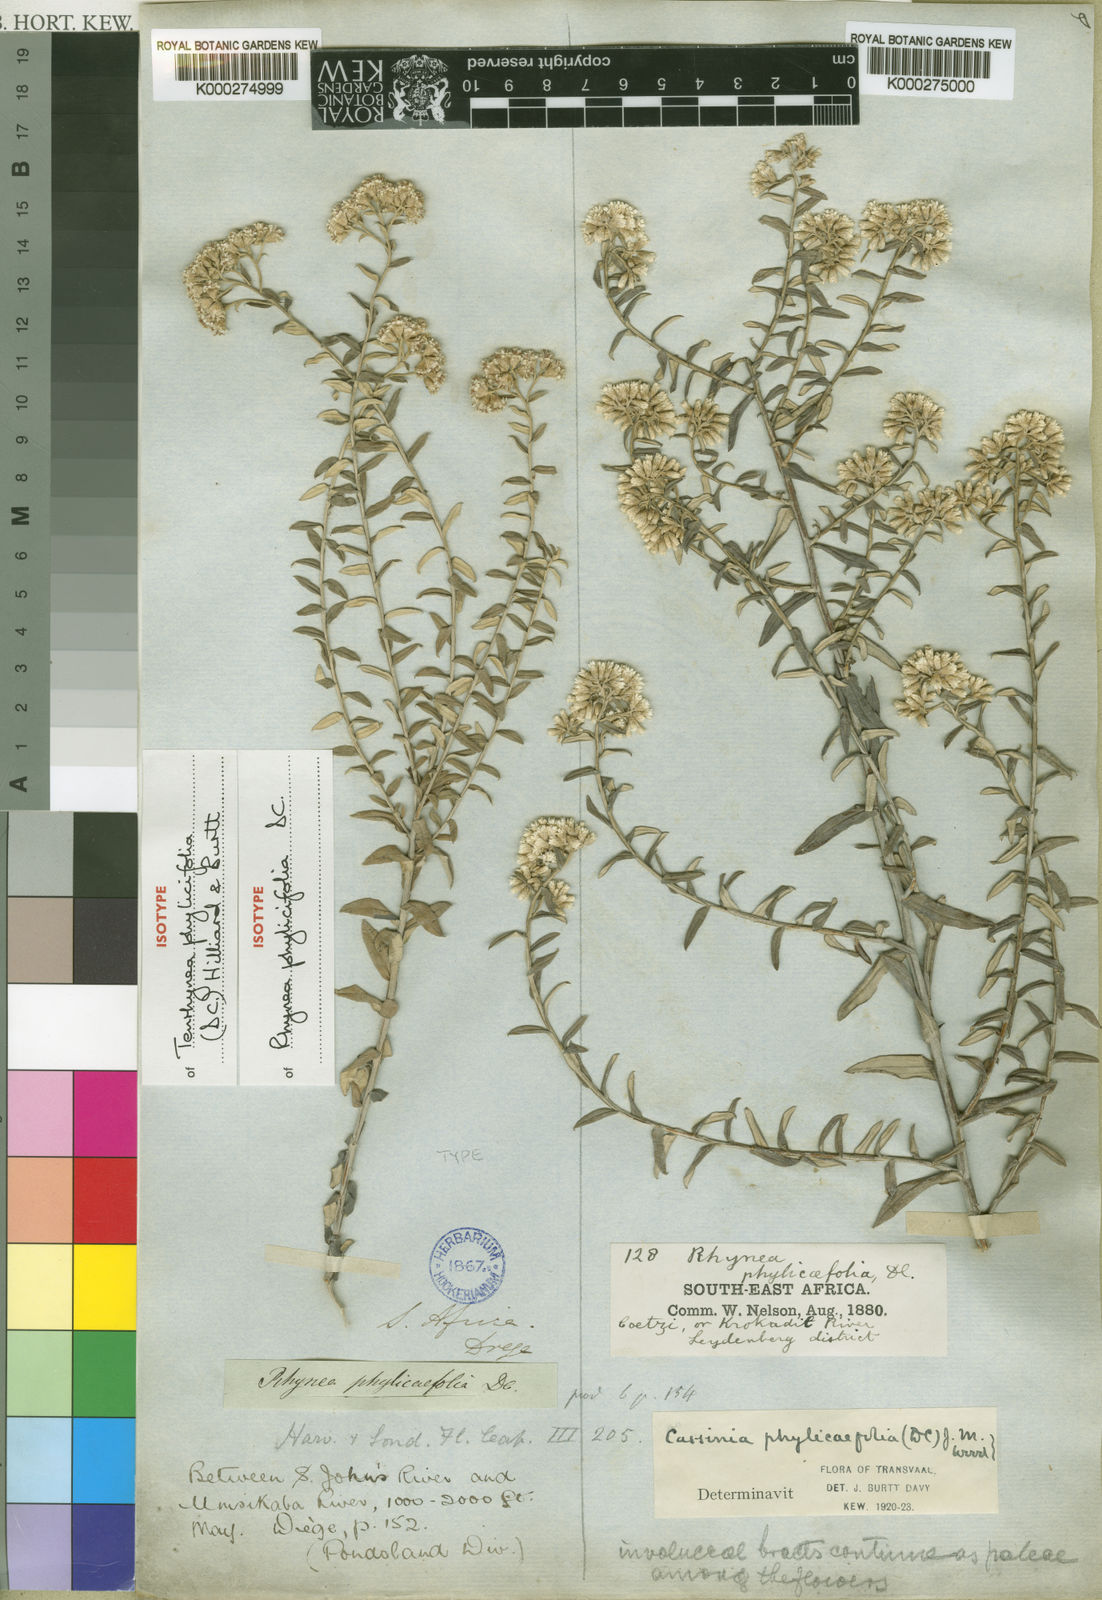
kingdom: Plantae
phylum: Tracheophyta
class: Magnoliopsida
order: Asterales
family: Asteraceae
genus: Tenrhynea
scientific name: Tenrhynea phylicifolia
